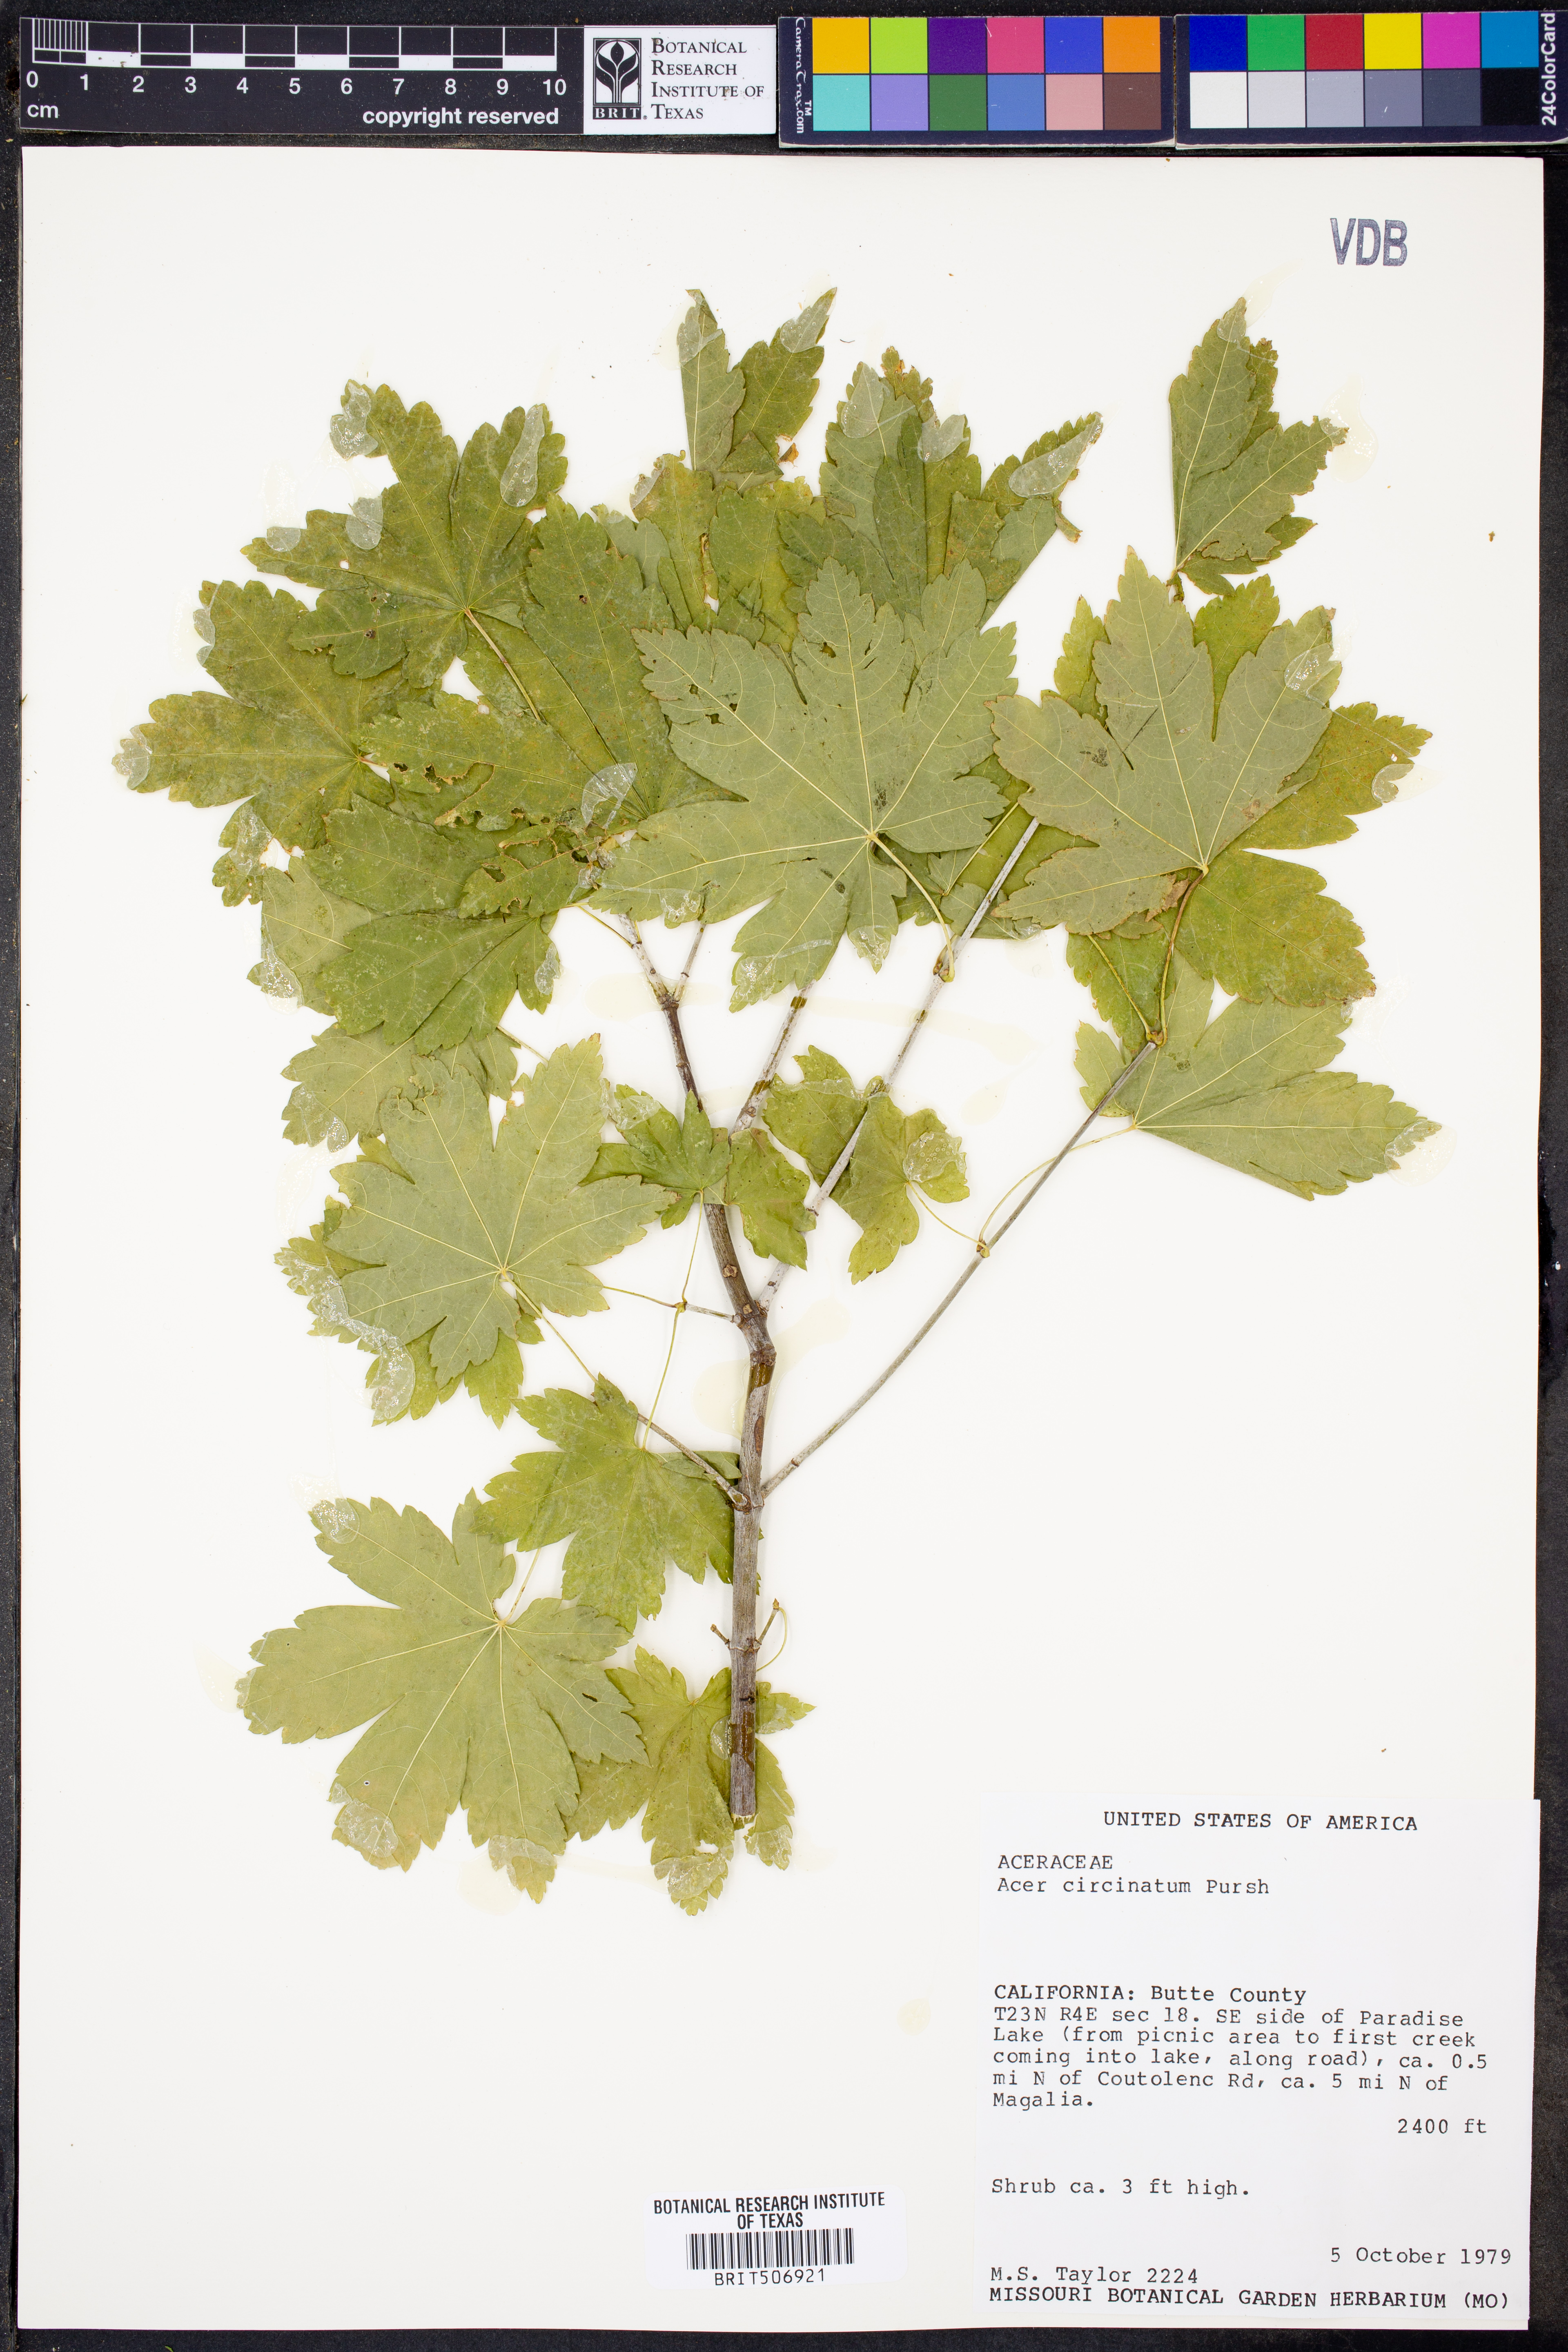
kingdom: Plantae
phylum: Tracheophyta
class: Magnoliopsida
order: Sapindales
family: Sapindaceae
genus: Acer
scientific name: Acer circinatum
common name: Vine maple
